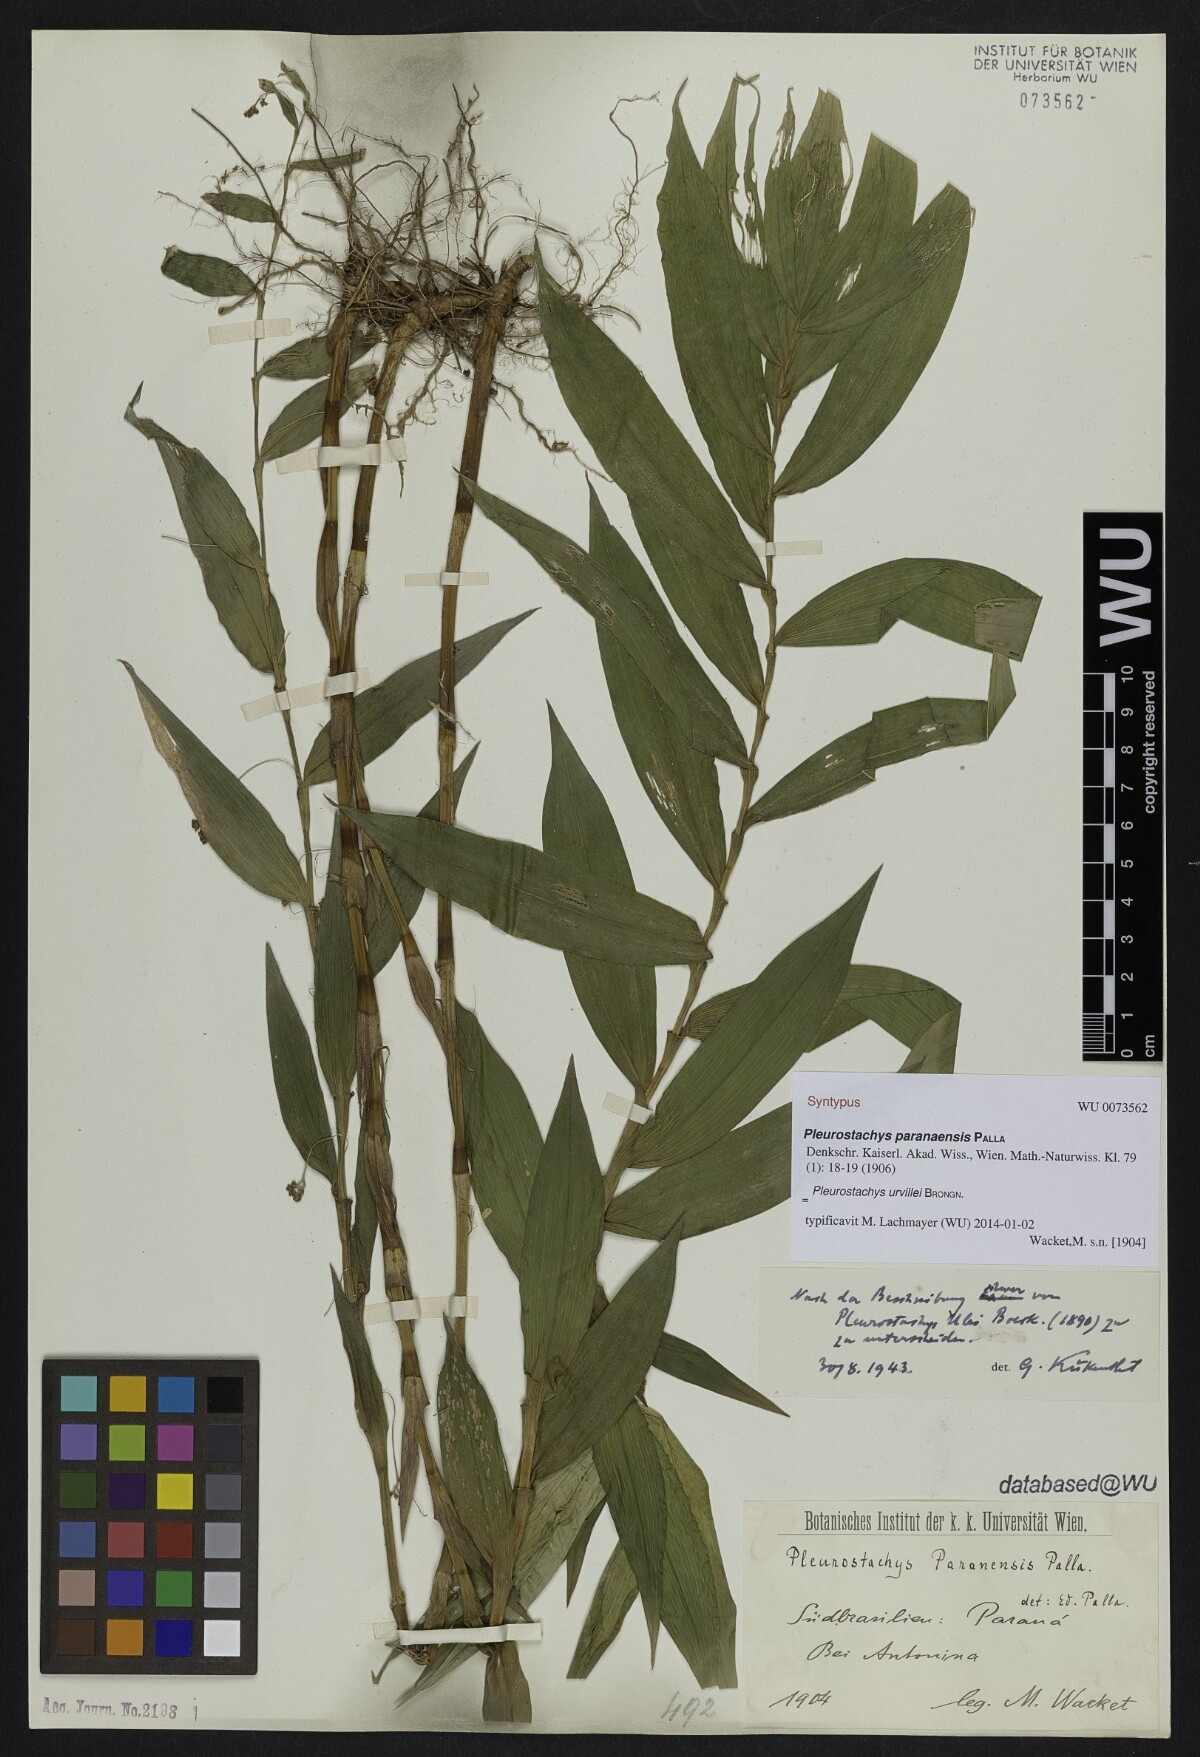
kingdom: Plantae
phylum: Tracheophyta
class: Liliopsida
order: Poales
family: Cyperaceae
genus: Rhynchospora
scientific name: Rhynchospora Pleurostachys ulei
